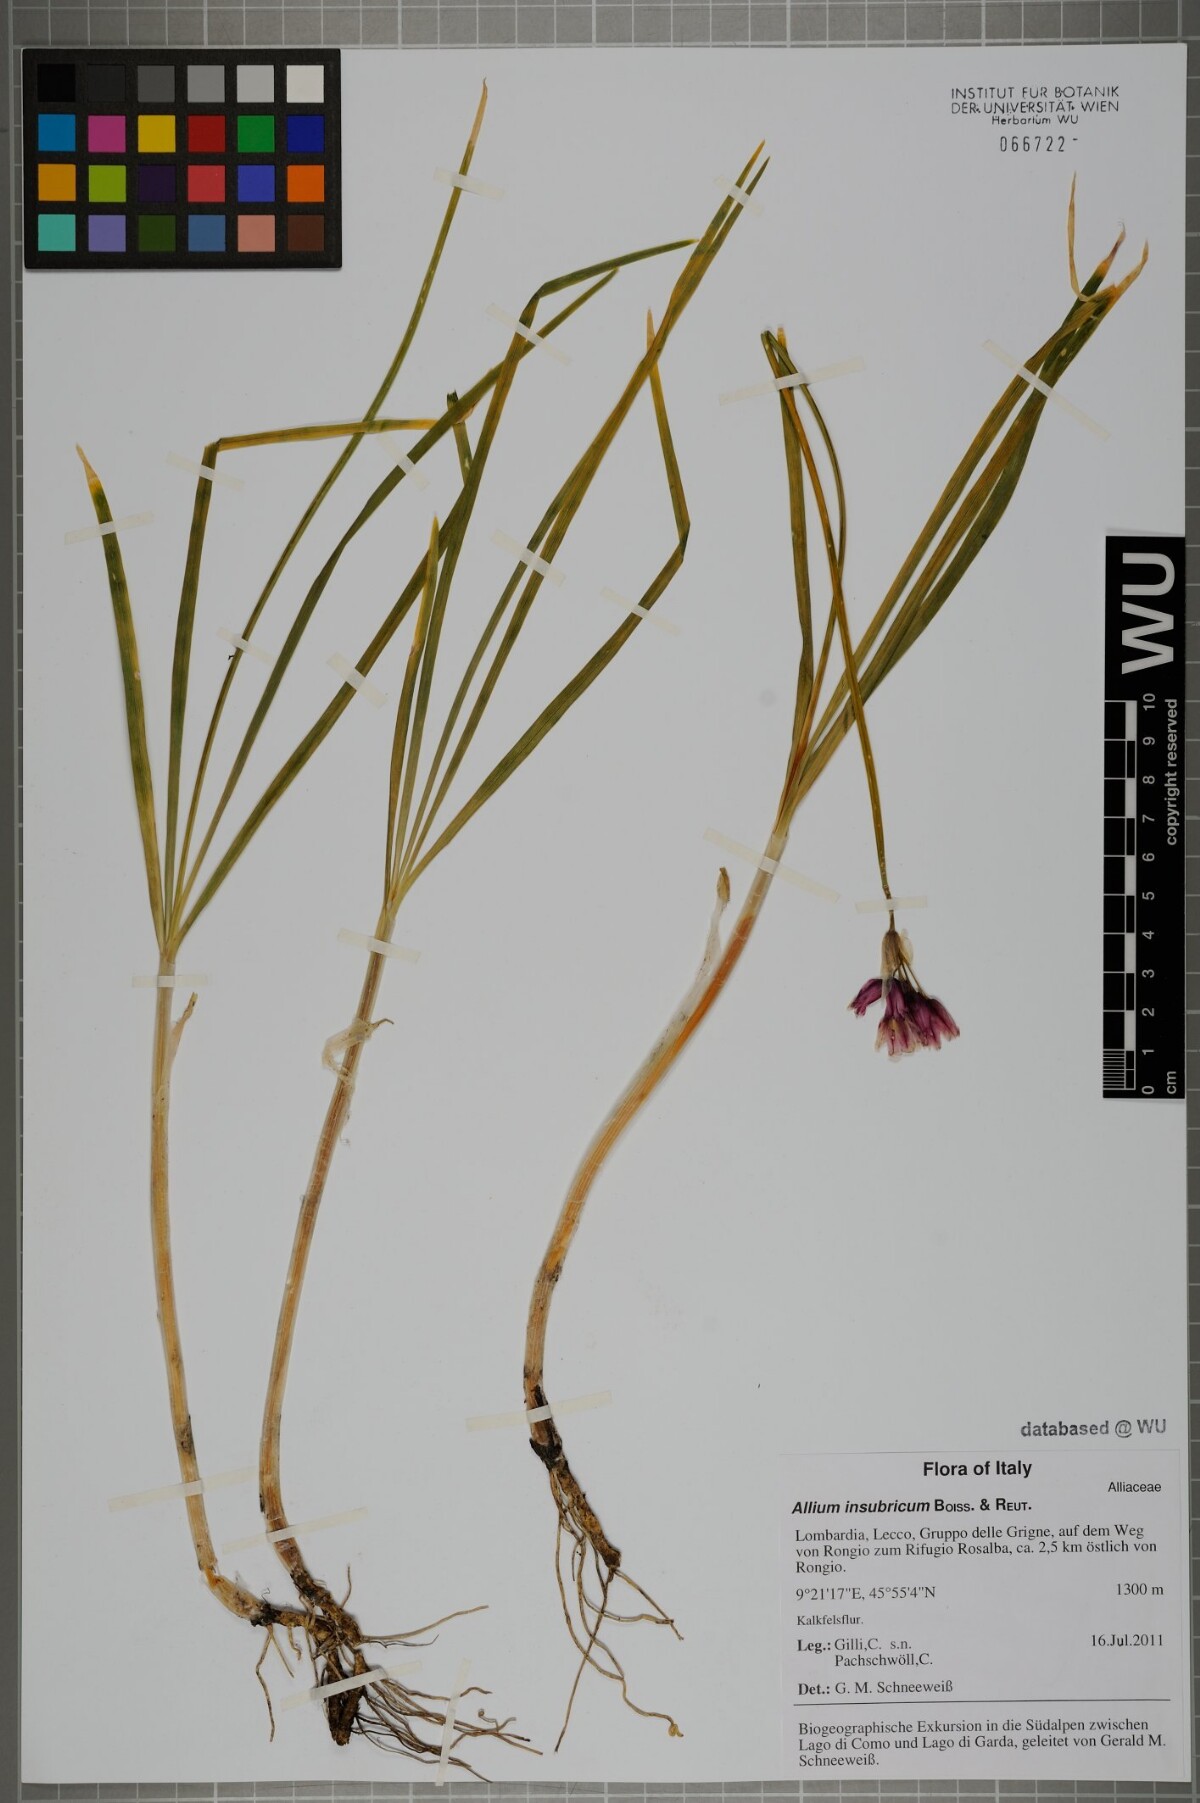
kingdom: Plantae
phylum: Tracheophyta
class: Liliopsida
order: Asparagales
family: Amaryllidaceae
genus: Allium
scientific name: Allium insubricum
